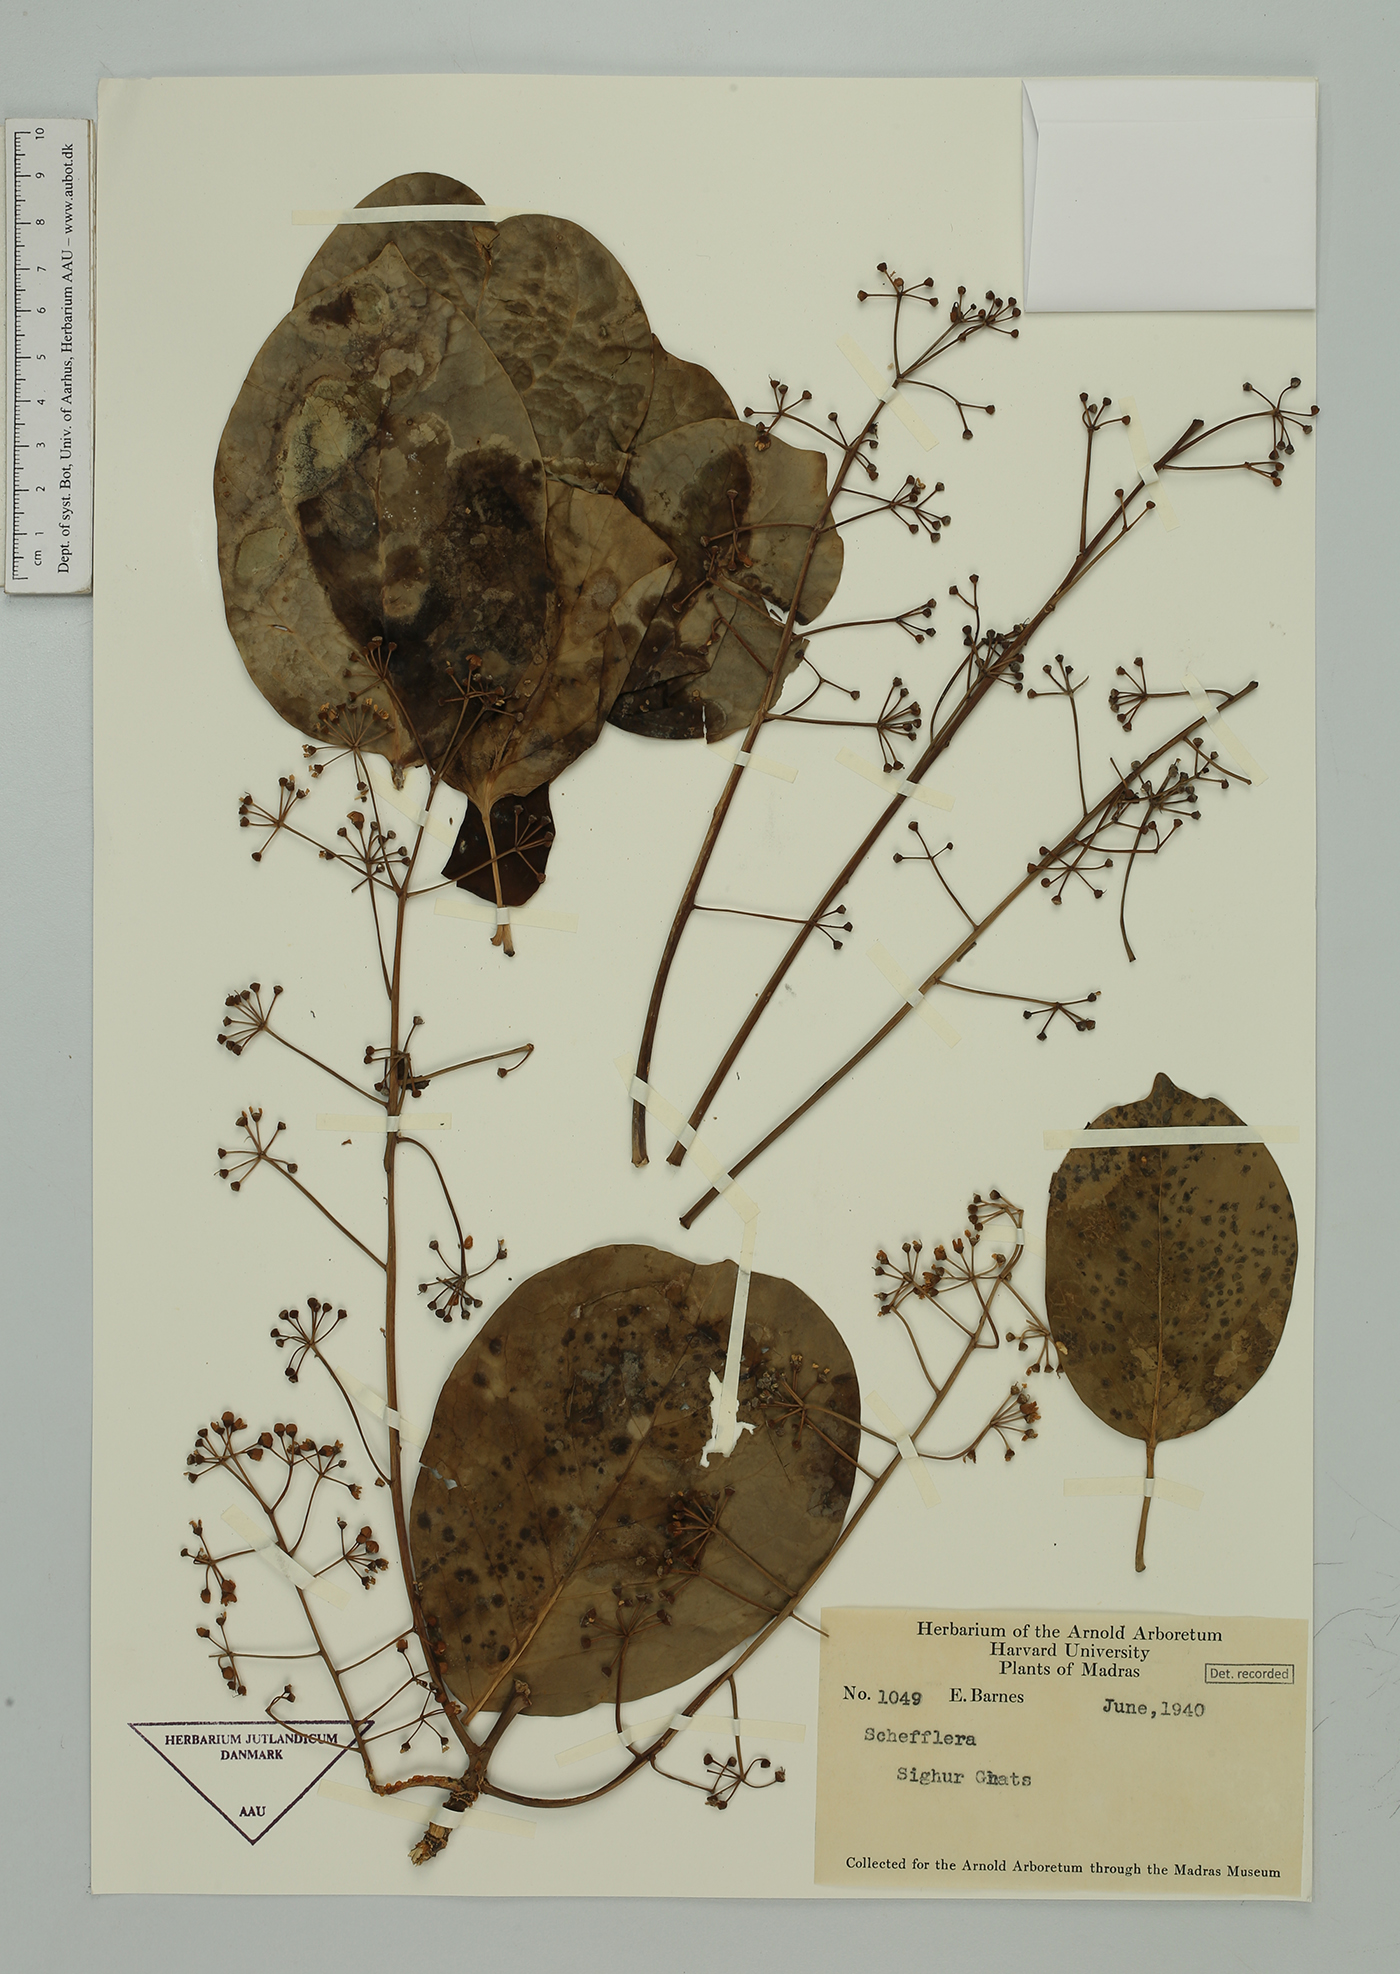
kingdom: Plantae
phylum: Tracheophyta
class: Magnoliopsida
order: Apiales
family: Araliaceae
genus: Schefflera
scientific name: Schefflera
